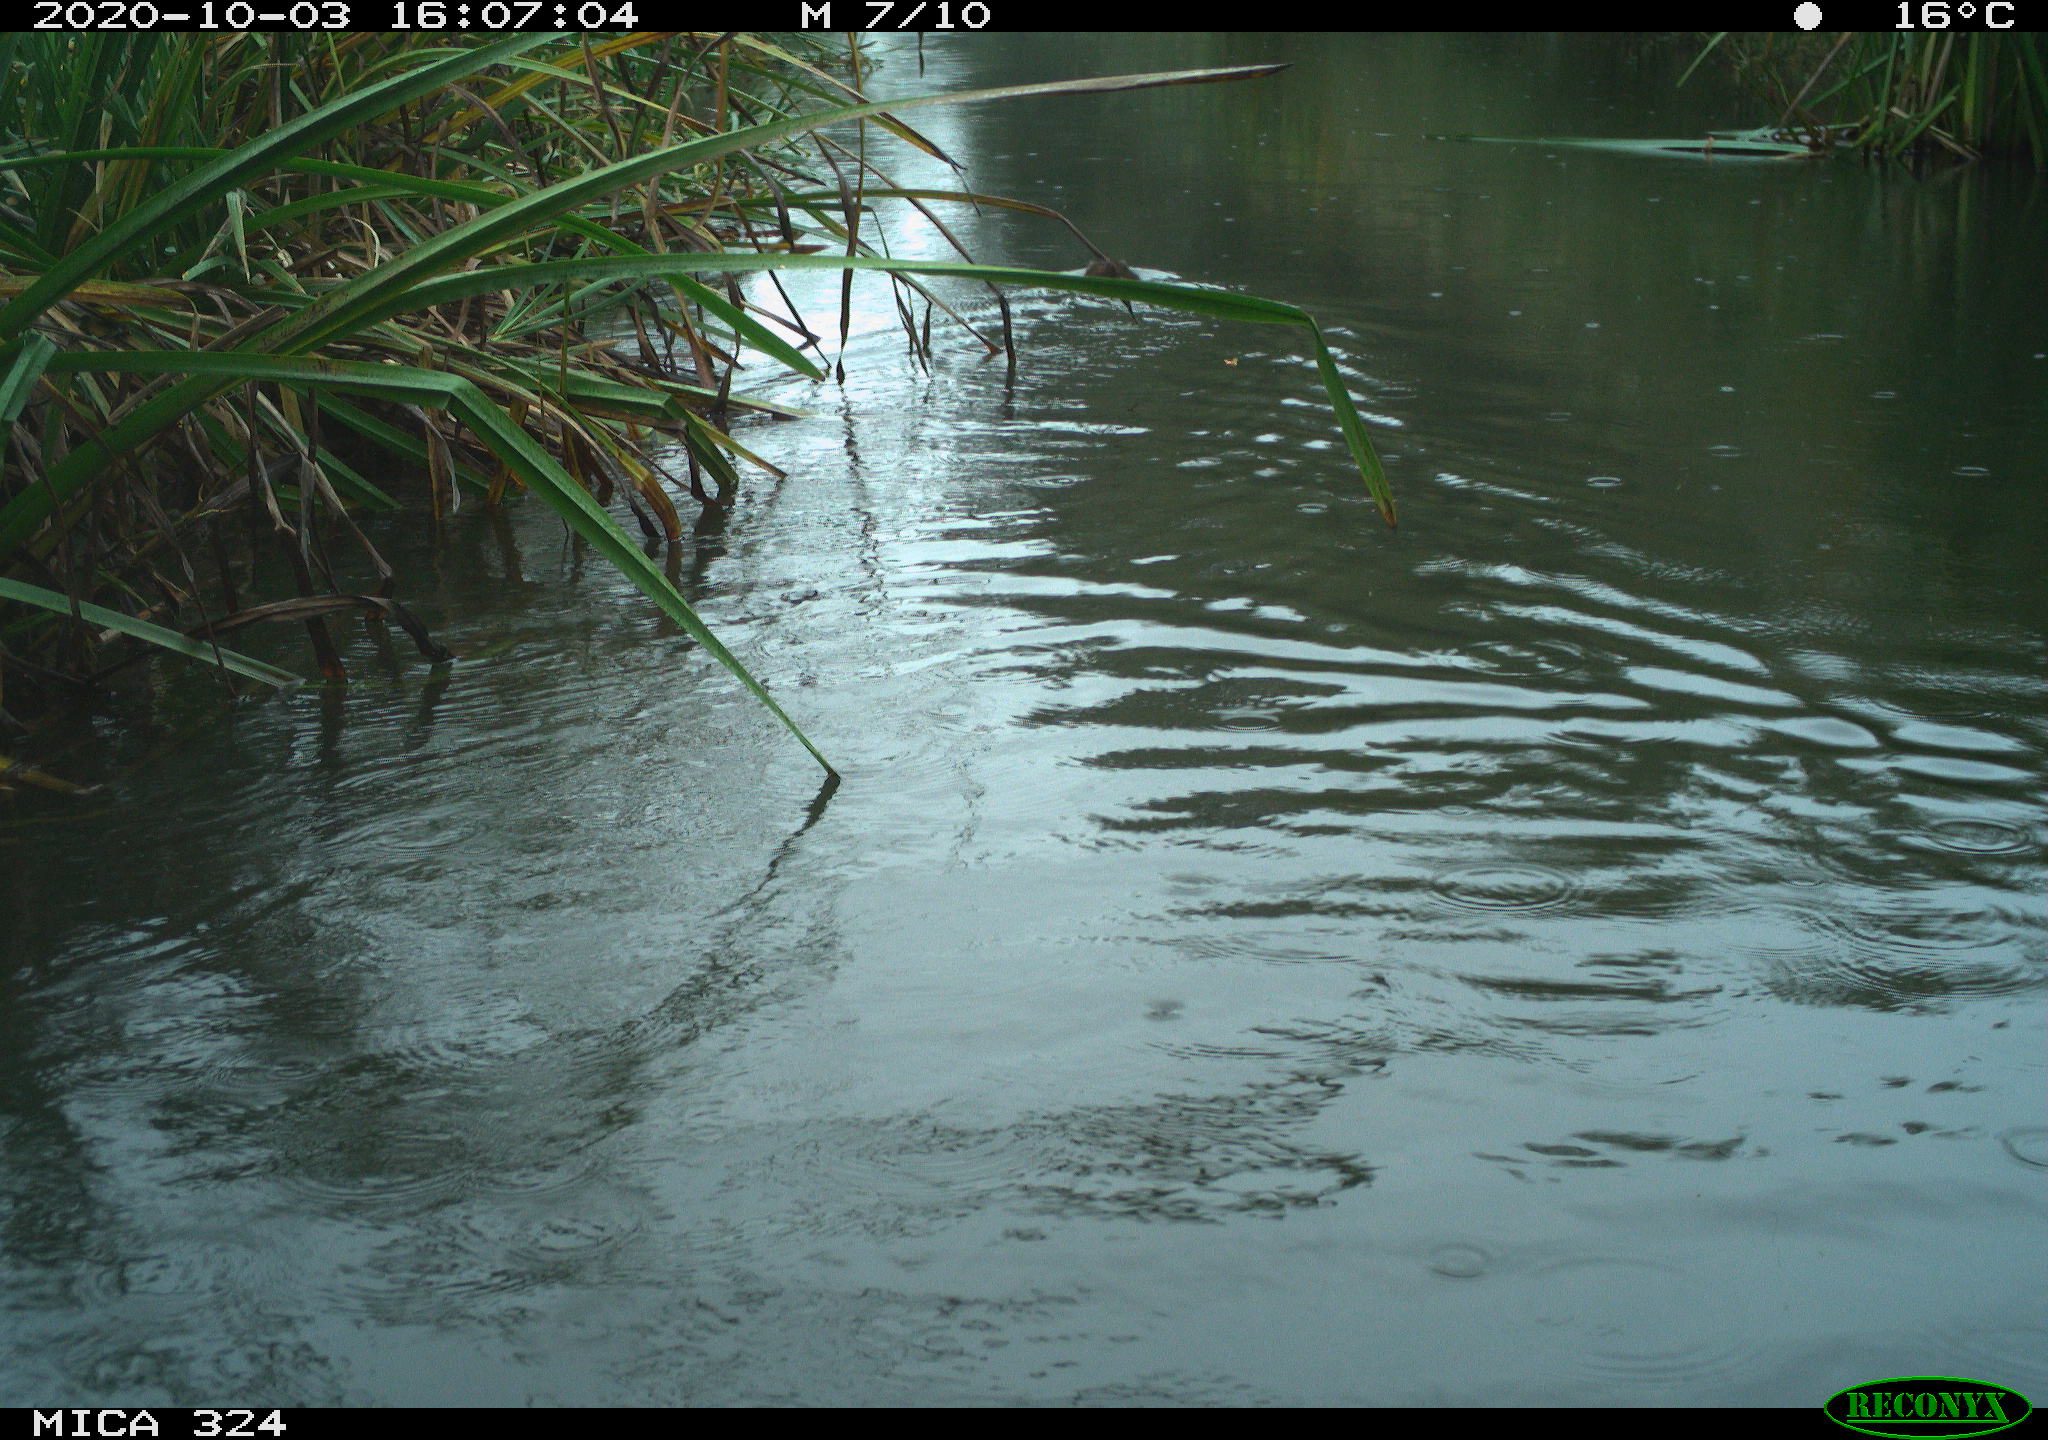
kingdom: Animalia
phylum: Chordata
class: Mammalia
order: Rodentia
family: Cricetidae
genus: Ondatra
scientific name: Ondatra zibethicus
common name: Muskrat
